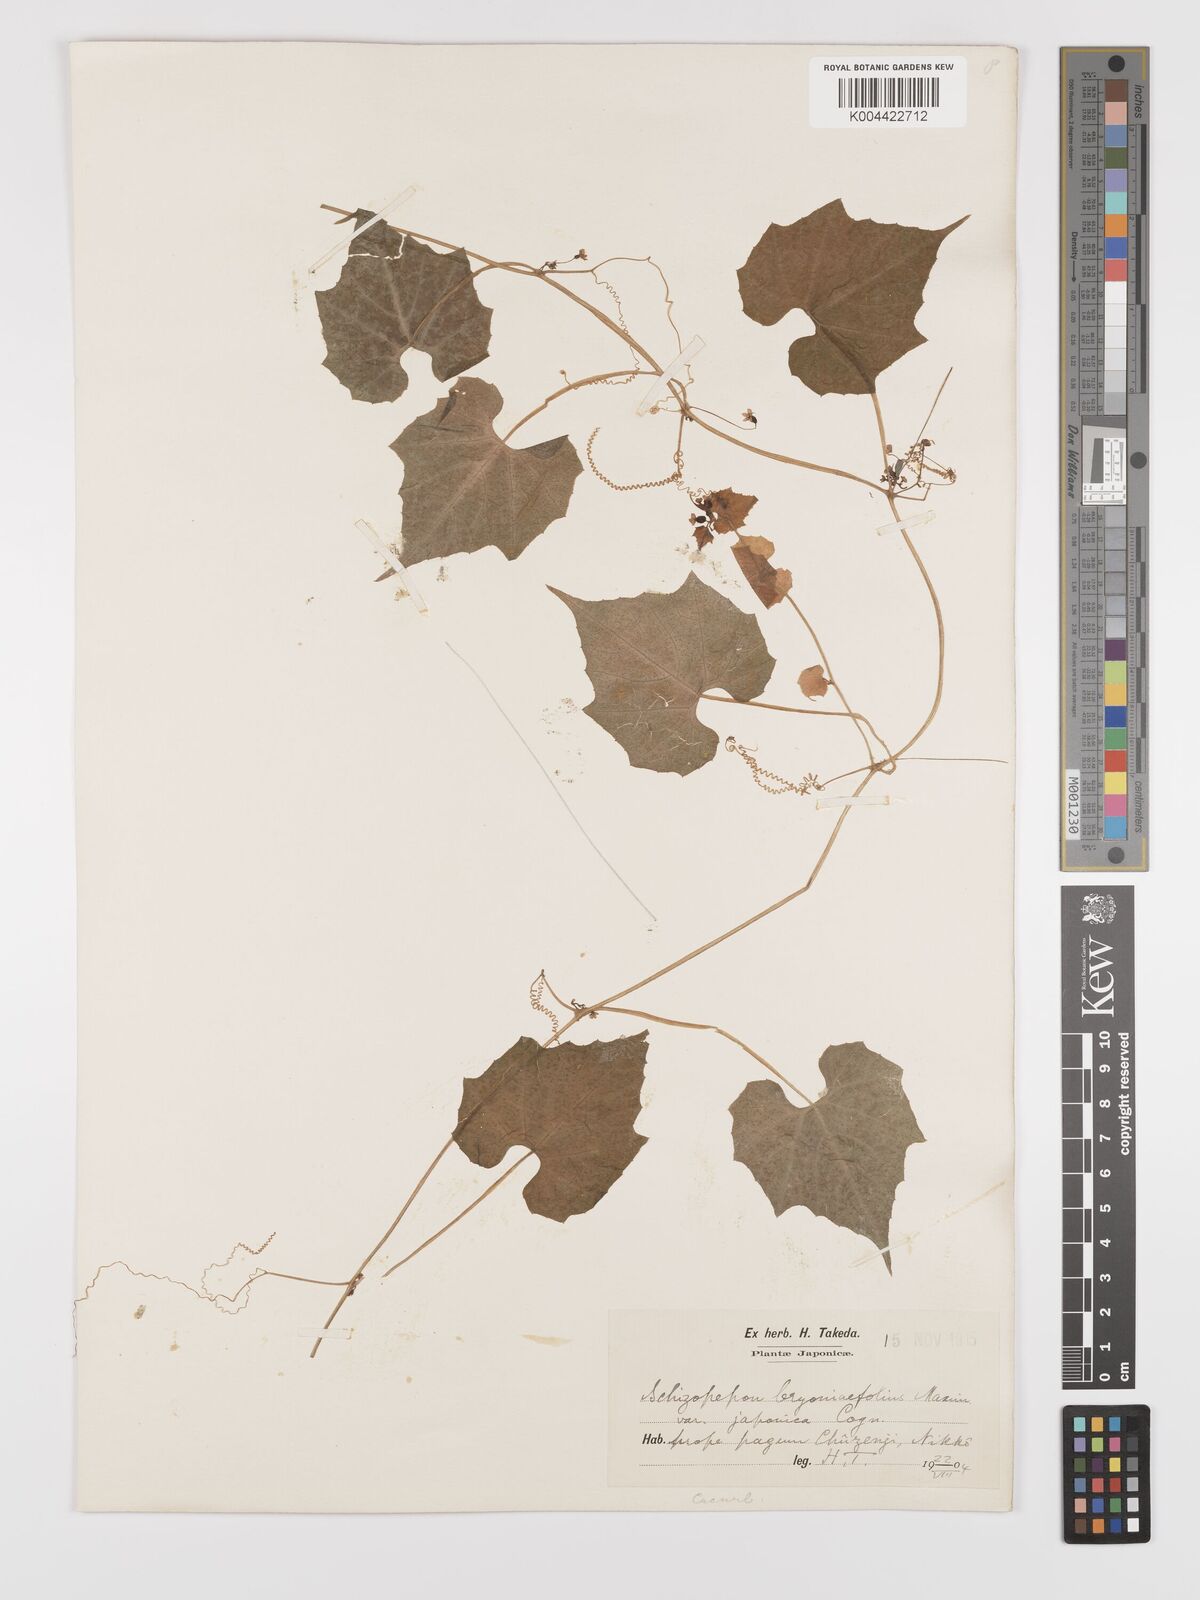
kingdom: Plantae
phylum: Tracheophyta
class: Magnoliopsida
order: Cucurbitales
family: Cucurbitaceae
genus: Schizopepon
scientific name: Schizopepon bryoniifolius
